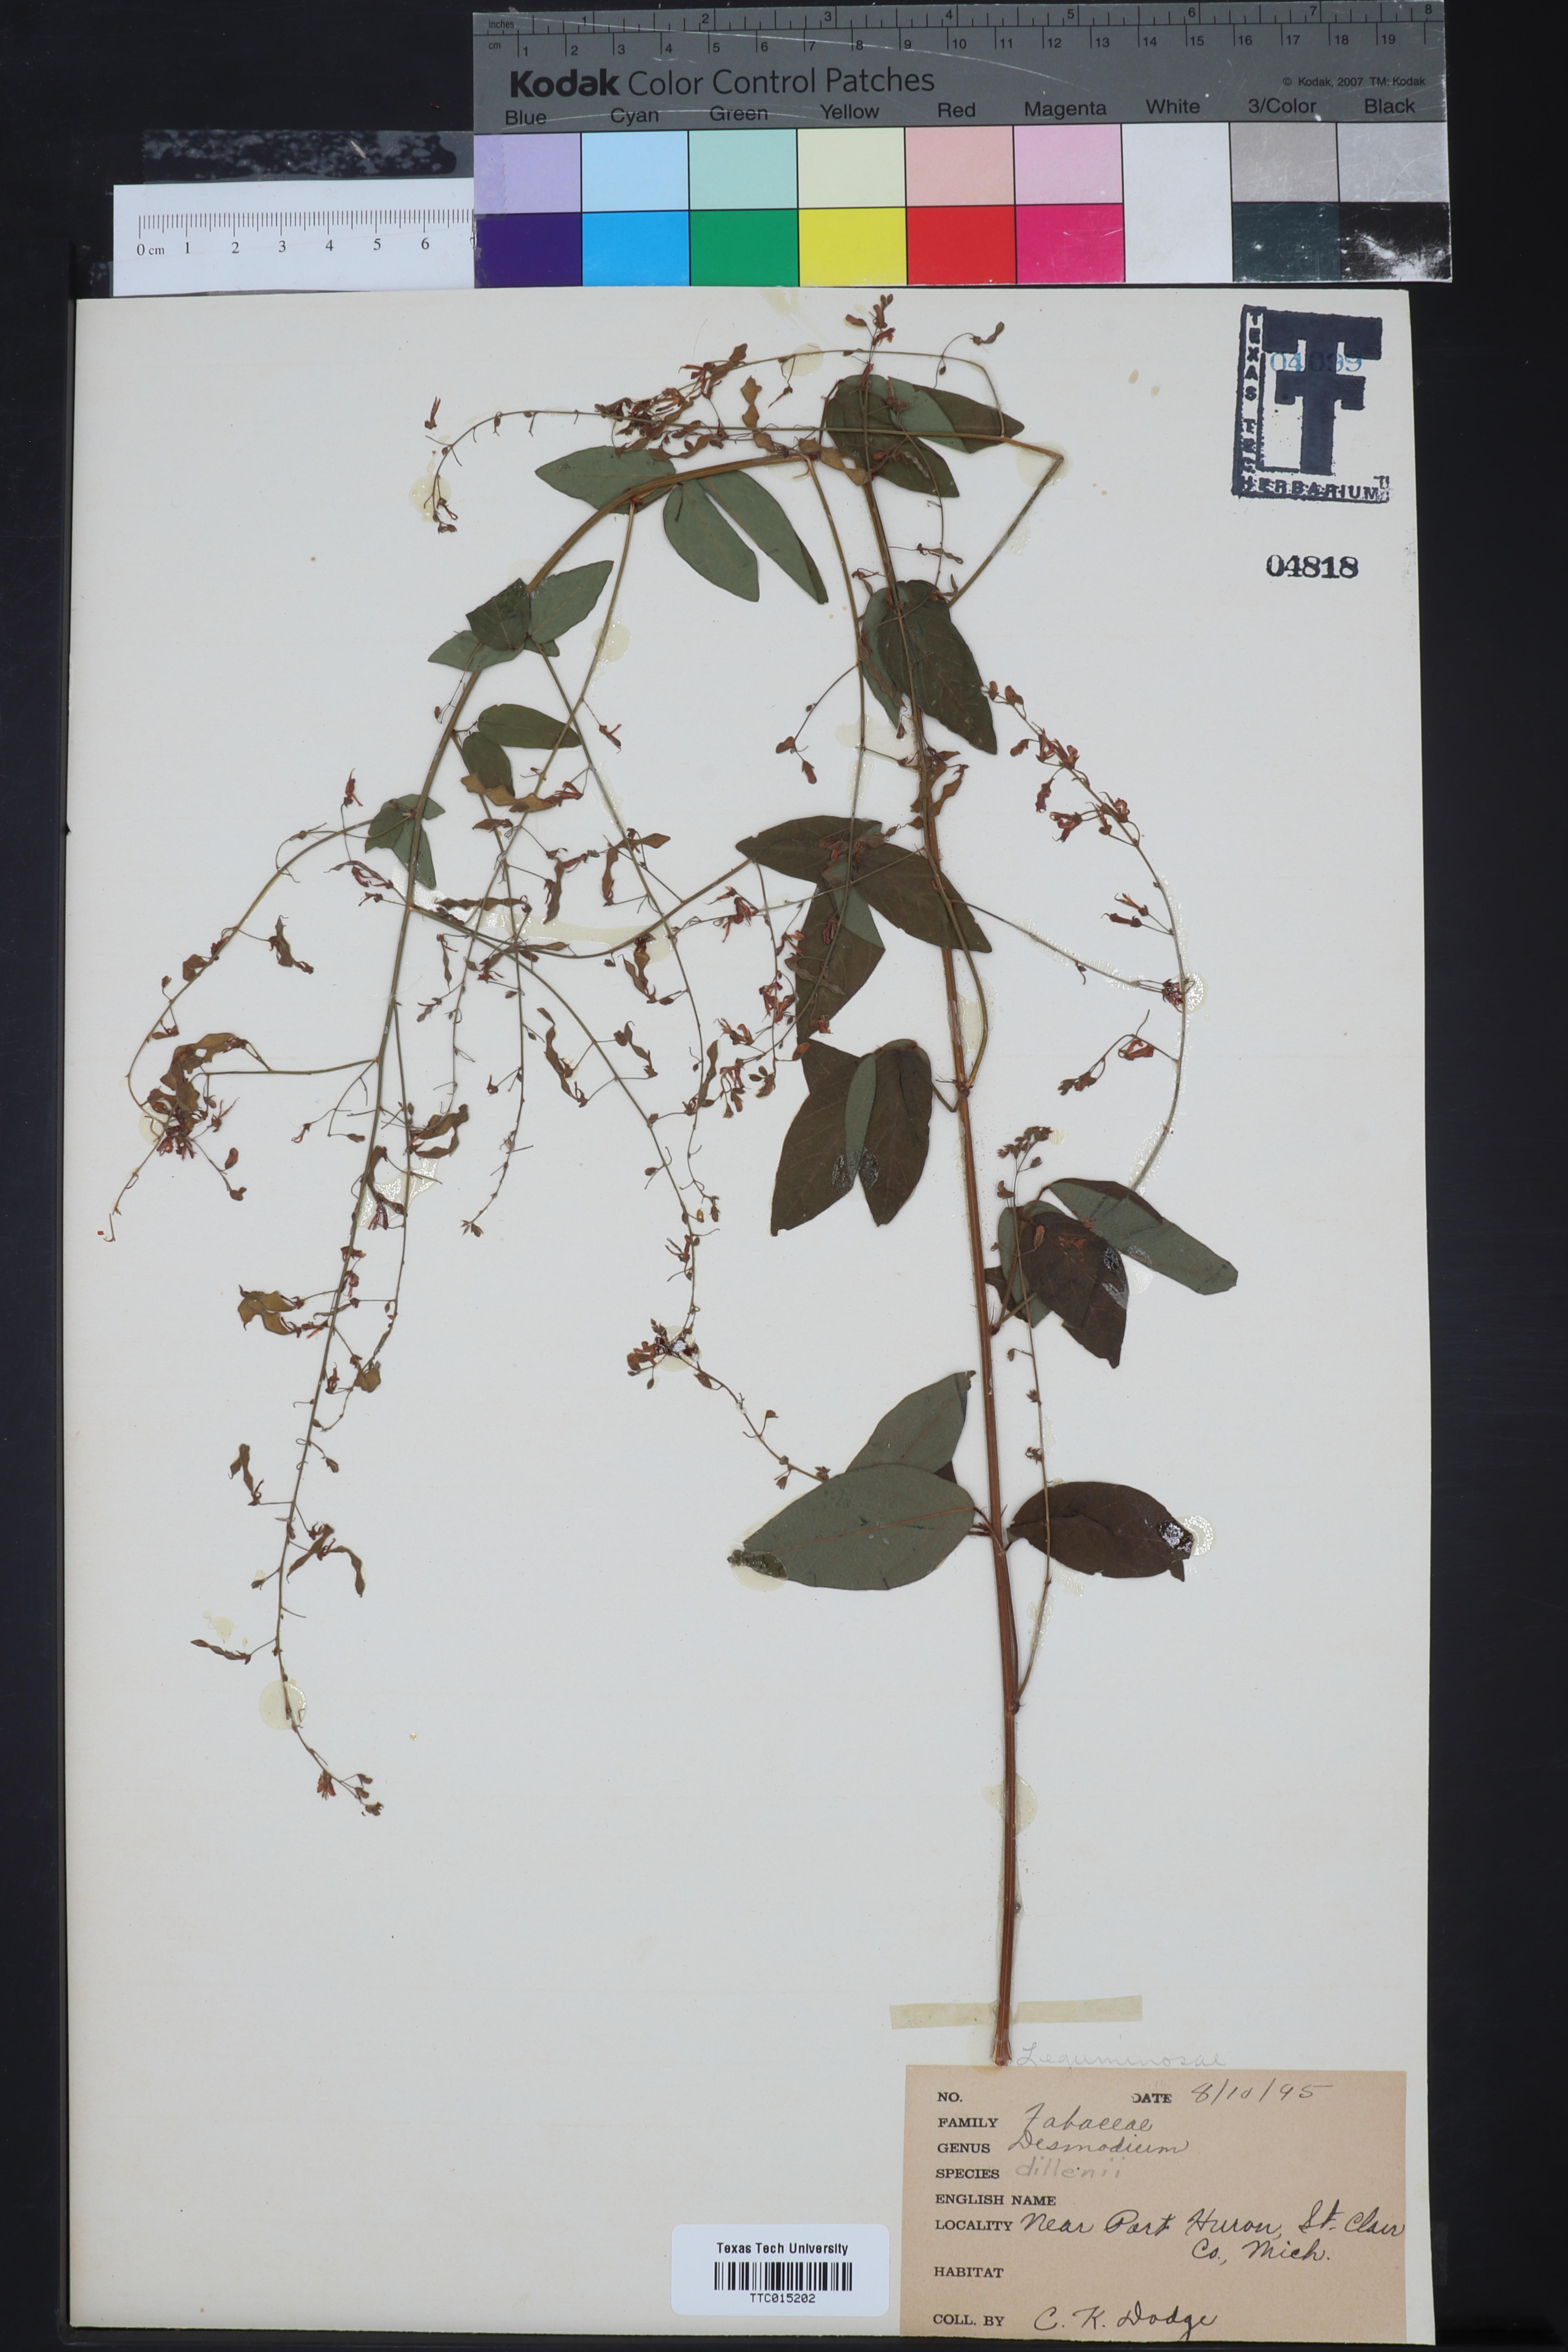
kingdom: Plantae
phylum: Tracheophyta
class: Magnoliopsida
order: Fabales
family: Fabaceae
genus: Desmodium
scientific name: Desmodium canadense
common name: Canada tick-trefoil
